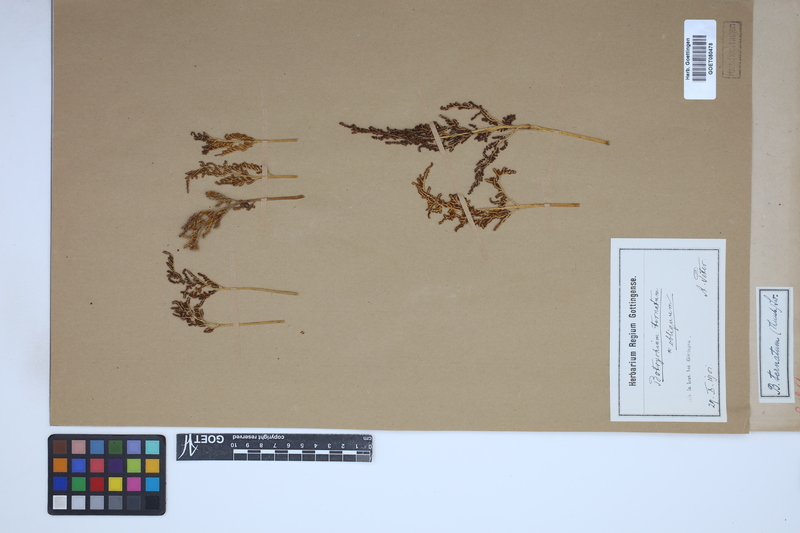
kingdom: Plantae
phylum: Tracheophyta
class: Polypodiopsida
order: Ophioglossales
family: Ophioglossaceae
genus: Sceptridium
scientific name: Sceptridium
